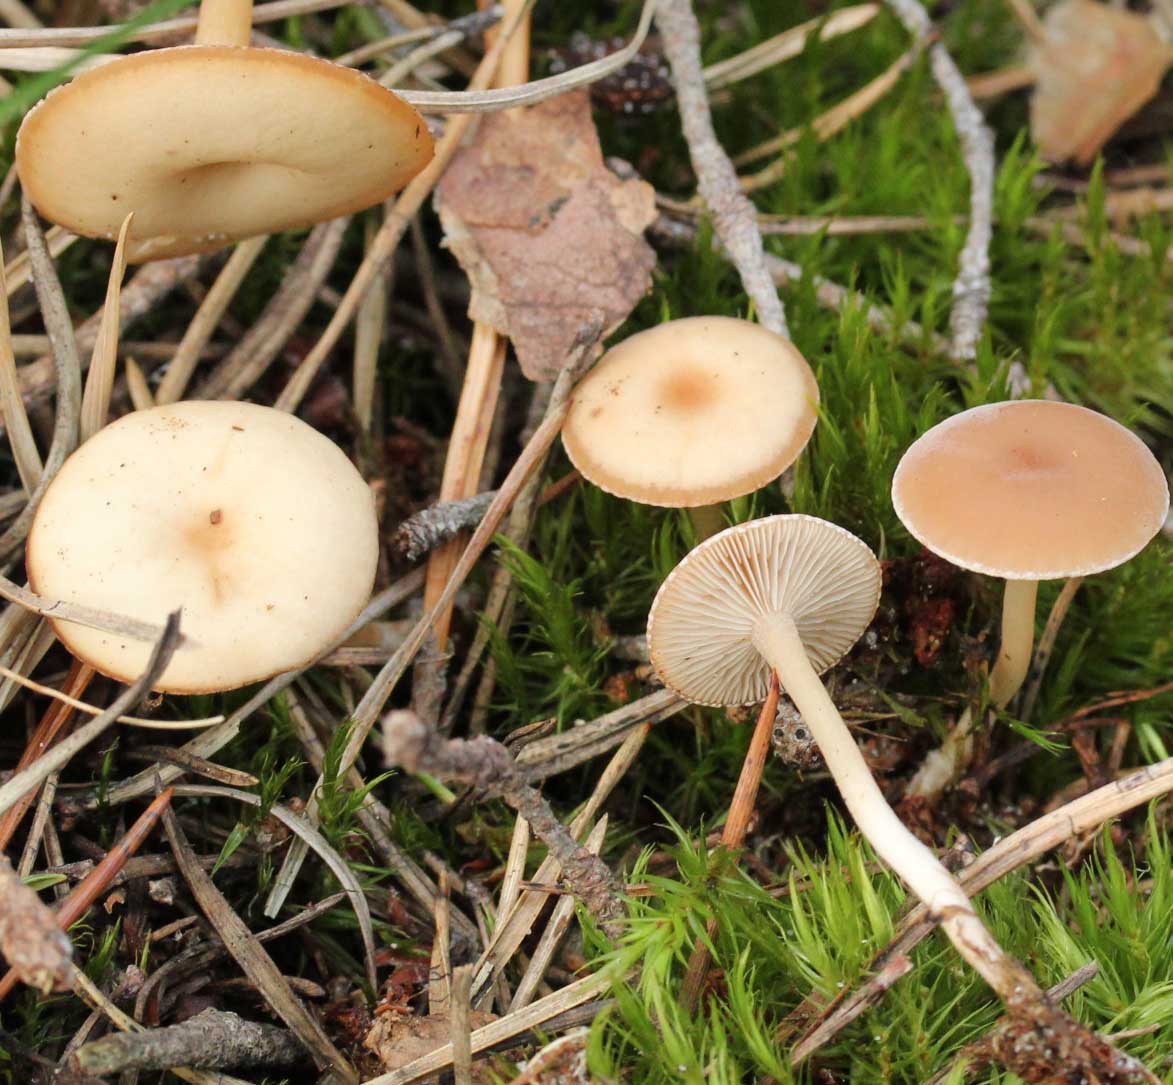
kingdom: Fungi
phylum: Basidiomycota
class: Agaricomycetes
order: Agaricales
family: Tricholomataceae
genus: Clitocybe
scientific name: Clitocybe diatreta
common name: kødfarvet tragthat
